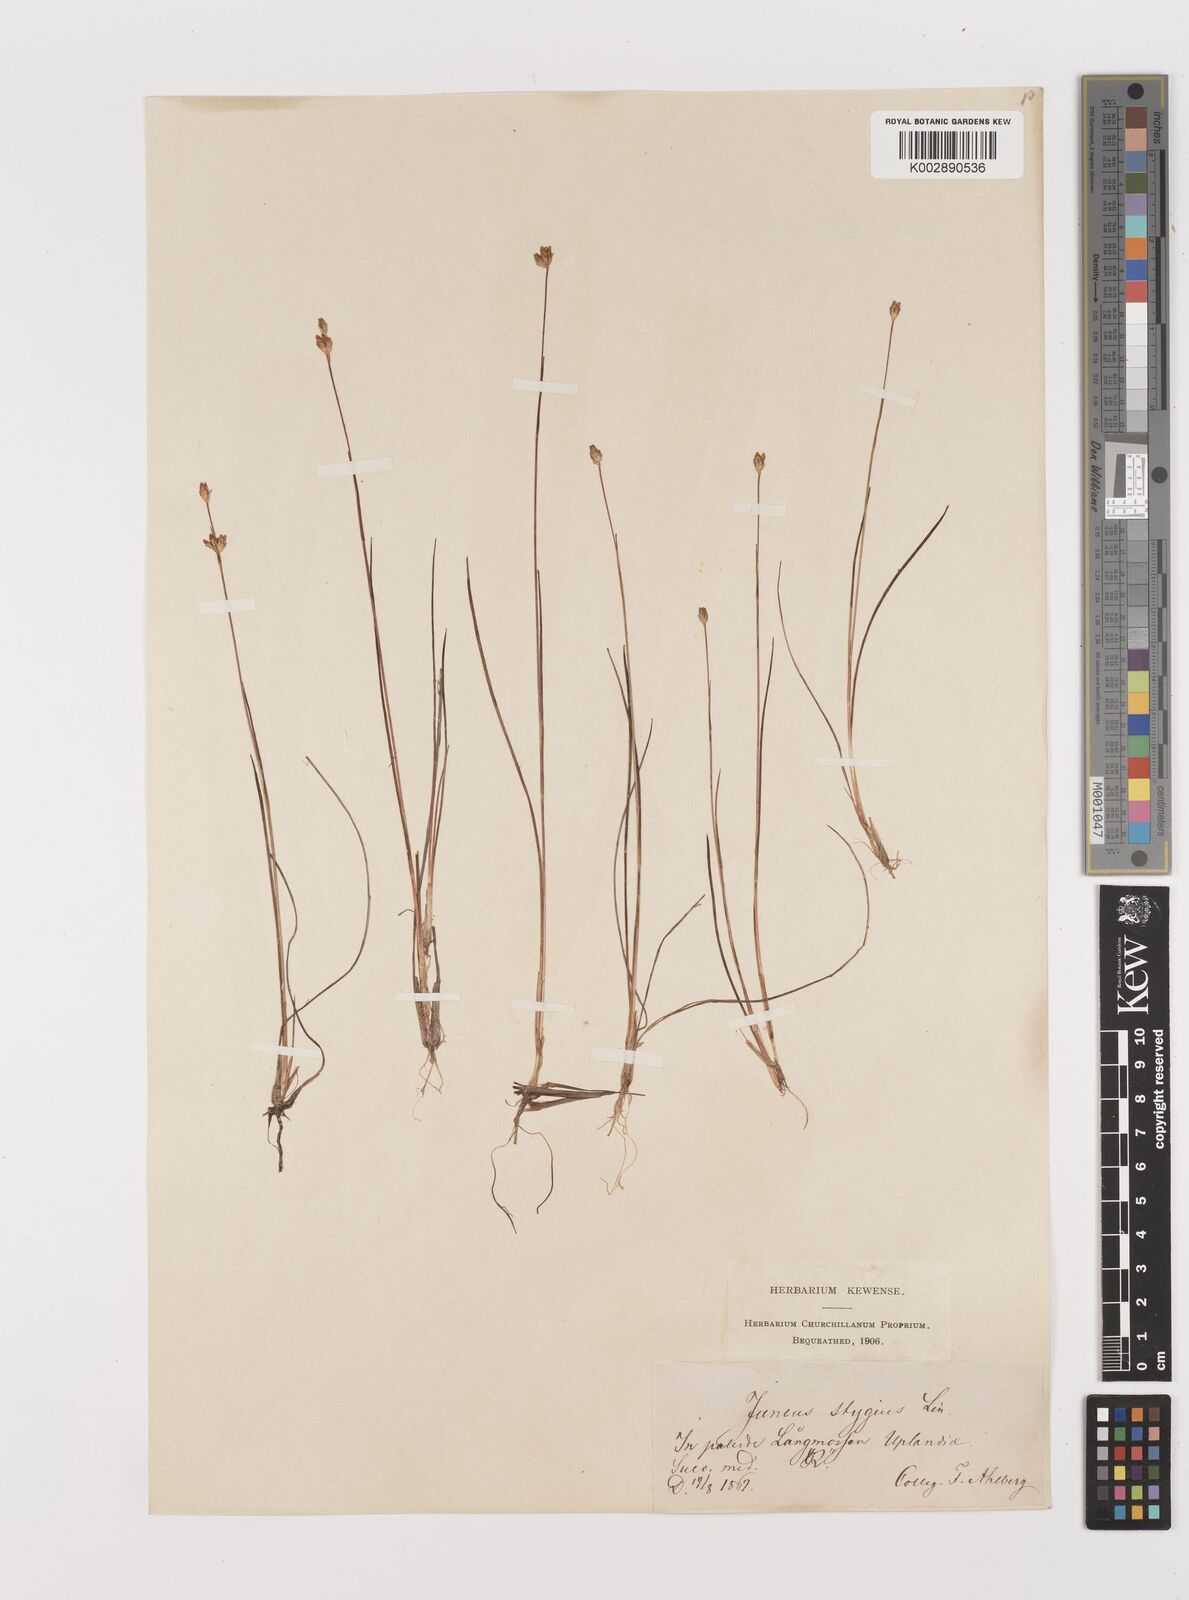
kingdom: Plantae
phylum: Tracheophyta
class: Liliopsida
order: Poales
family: Juncaceae
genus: Juncus
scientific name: Juncus stygius
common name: Bog rush
